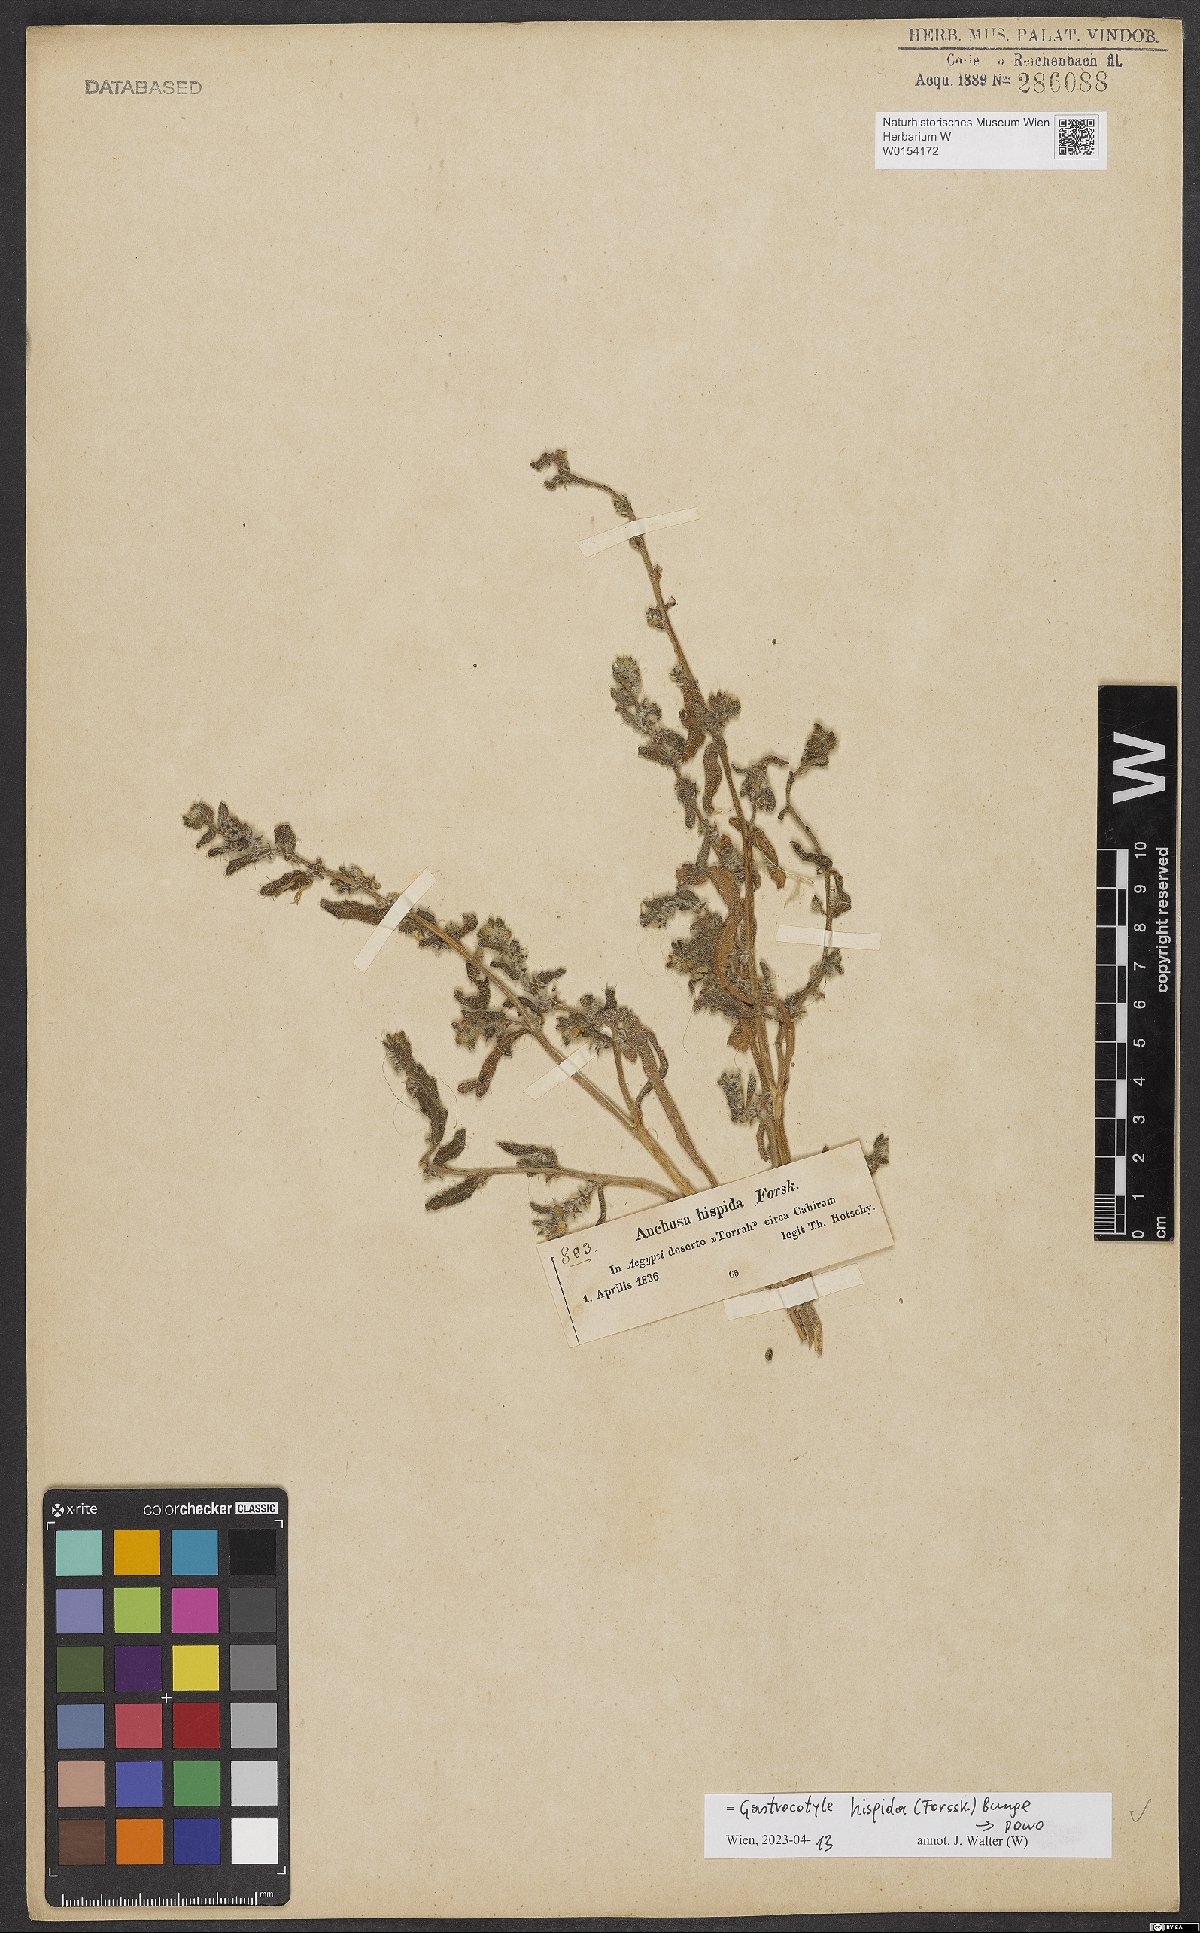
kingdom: Plantae
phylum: Tracheophyta
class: Magnoliopsida
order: Boraginales
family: Boraginaceae
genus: Gastrocotyle
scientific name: Gastrocotyle hispida
